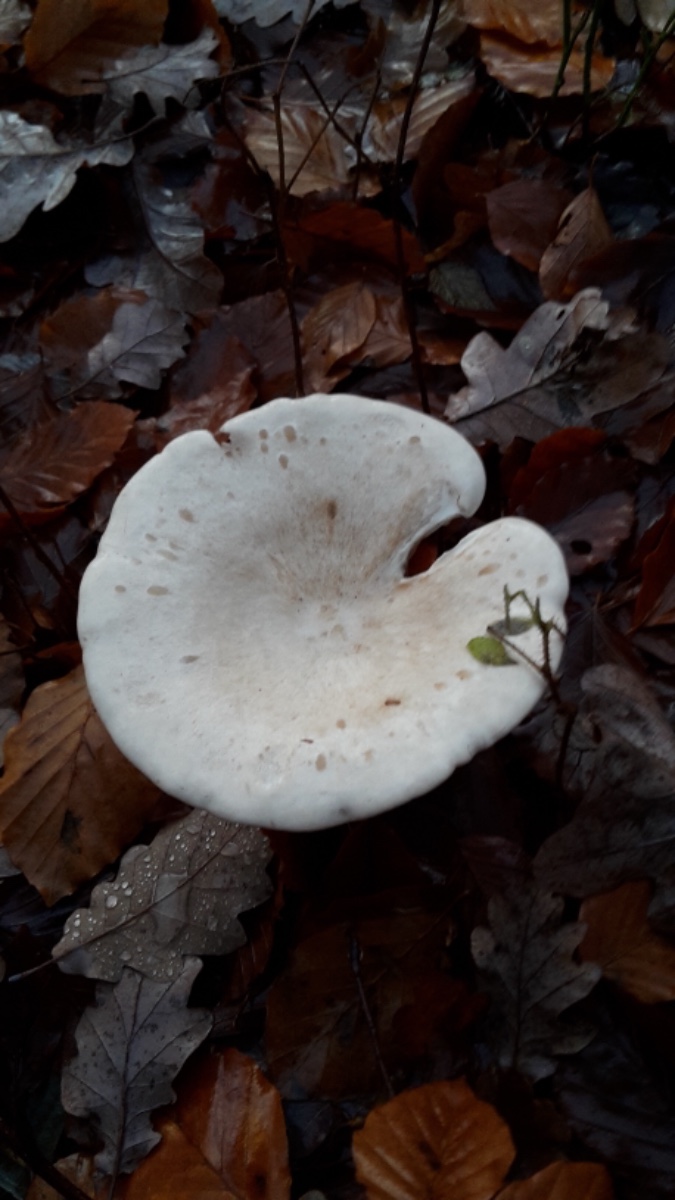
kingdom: Fungi
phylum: Basidiomycota
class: Agaricomycetes
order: Agaricales
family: Tricholomataceae
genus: Infundibulicybe
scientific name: Infundibulicybe geotropa
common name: stor tragthat
